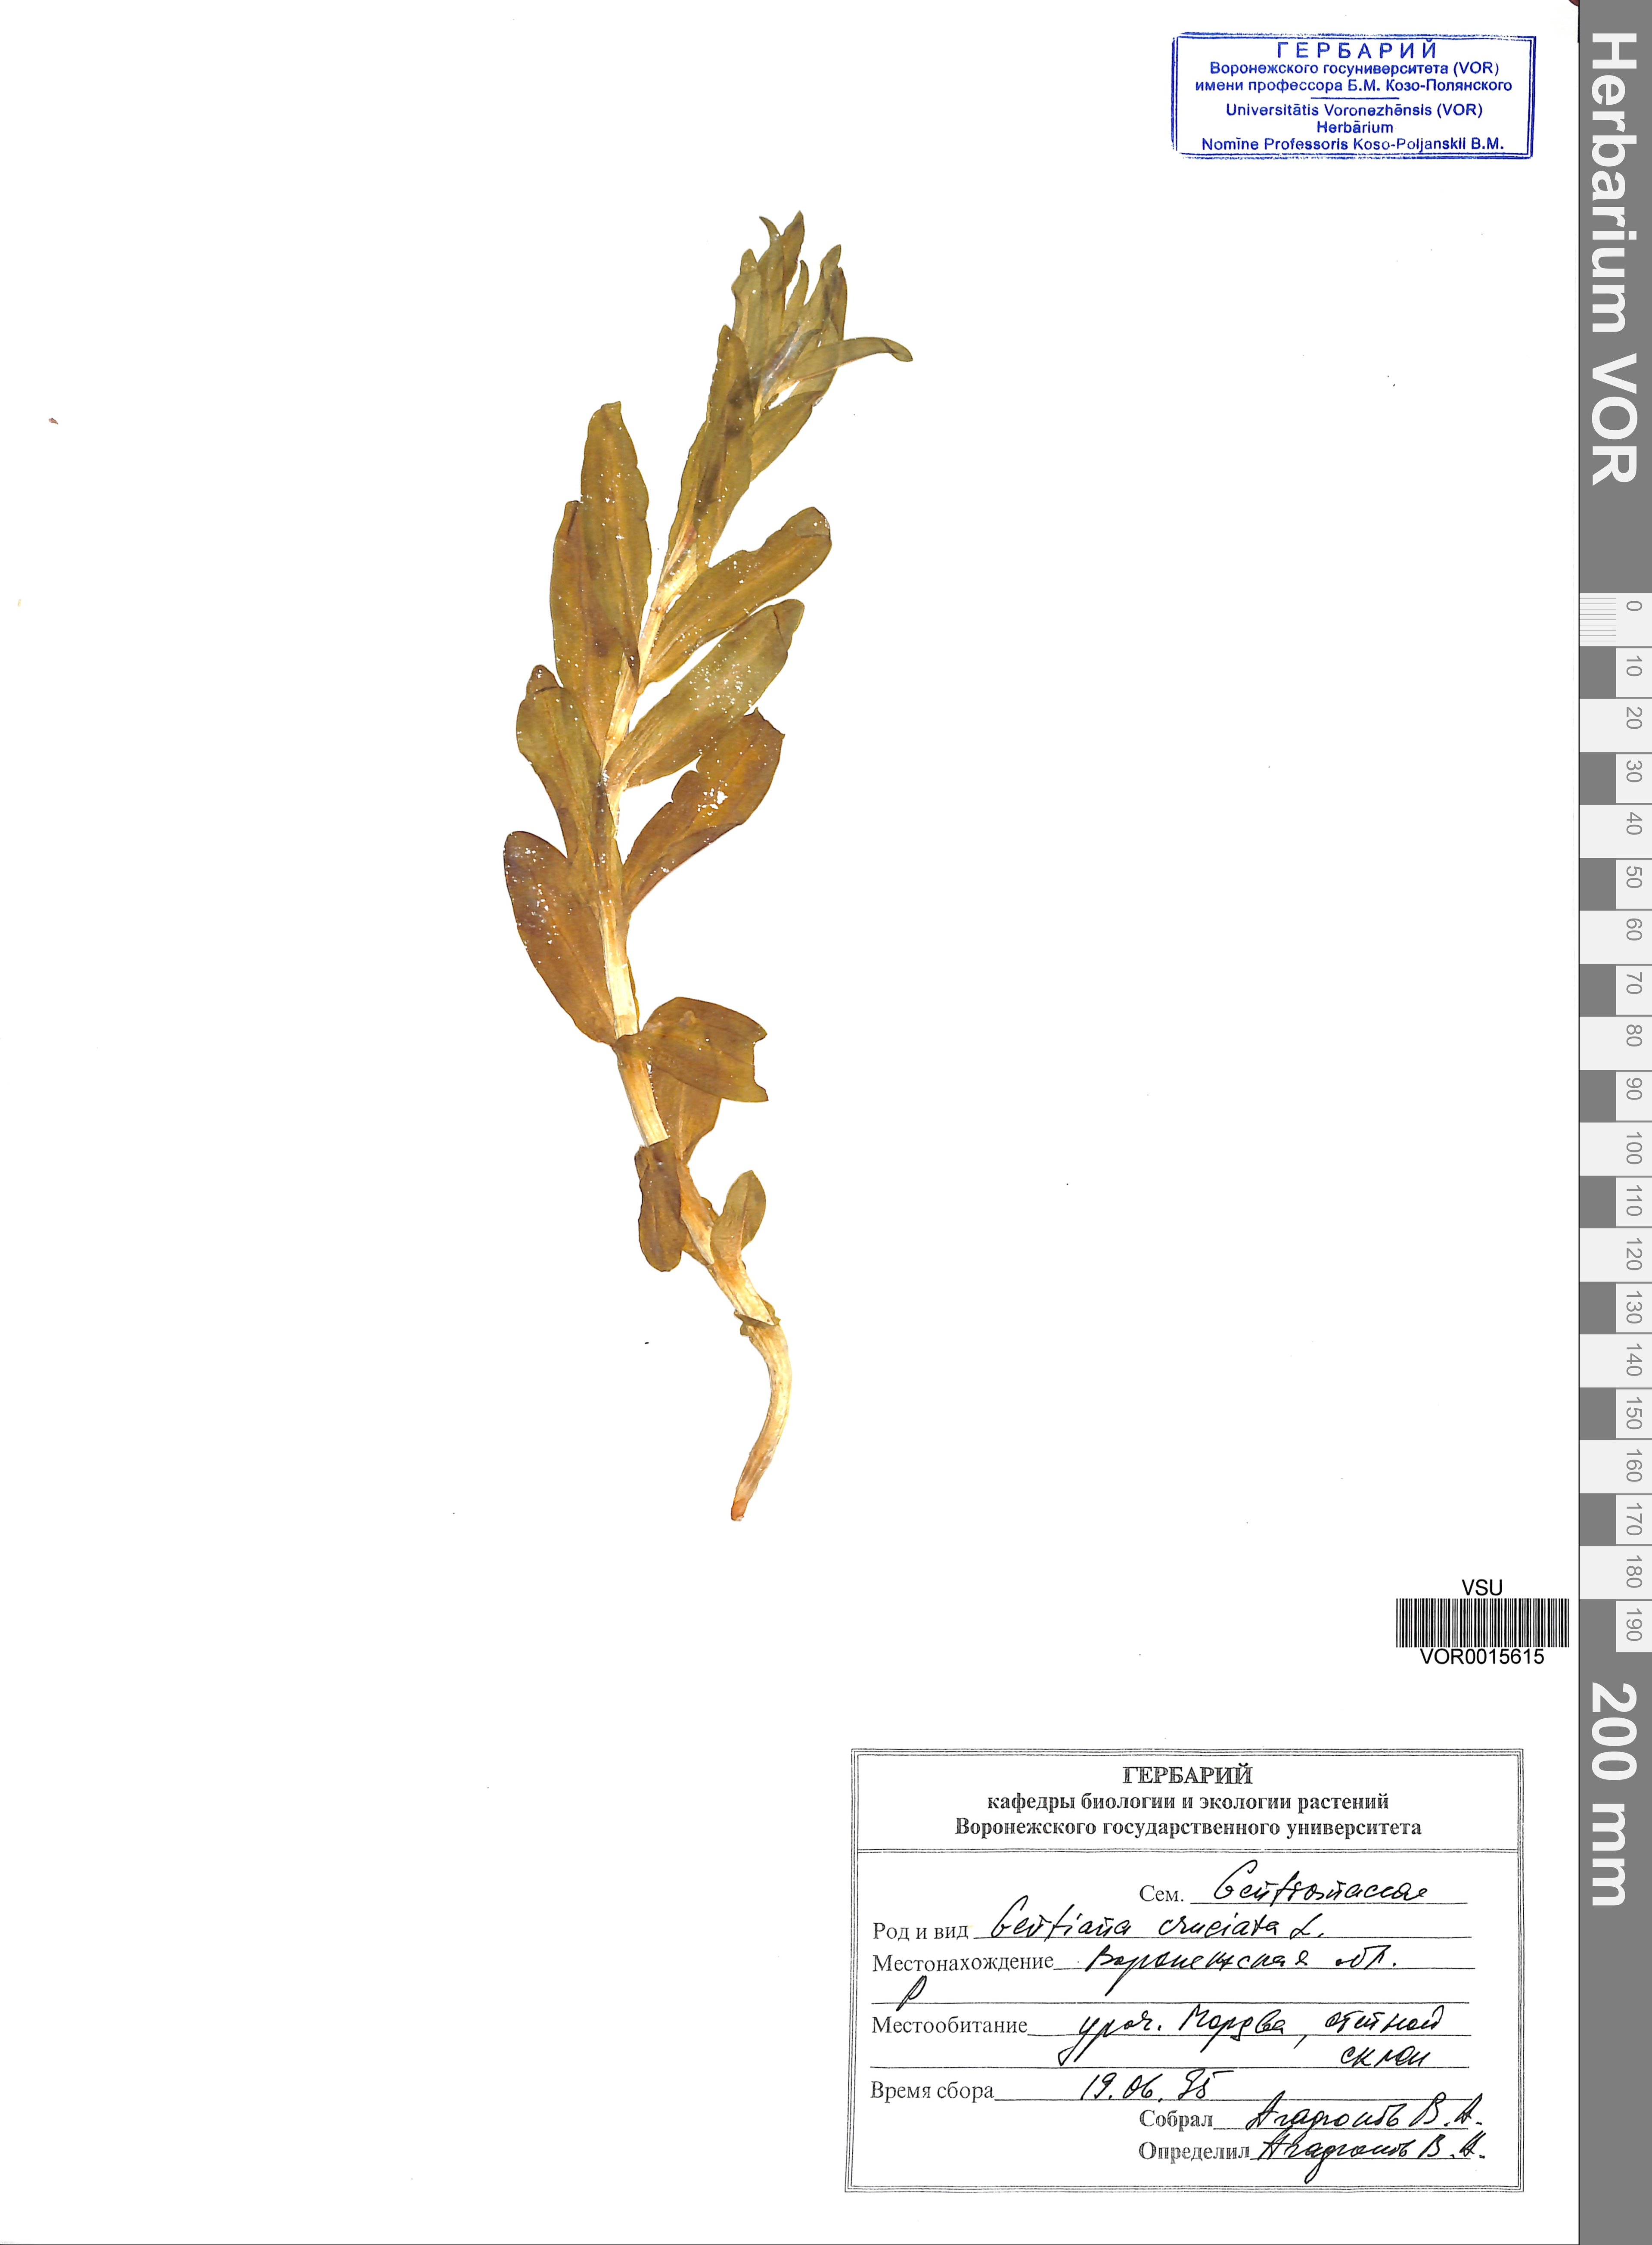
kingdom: Plantae
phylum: Tracheophyta
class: Magnoliopsida
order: Gentianales
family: Gentianaceae
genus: Gentiana
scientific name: Gentiana cruciata
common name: Cross gentian
